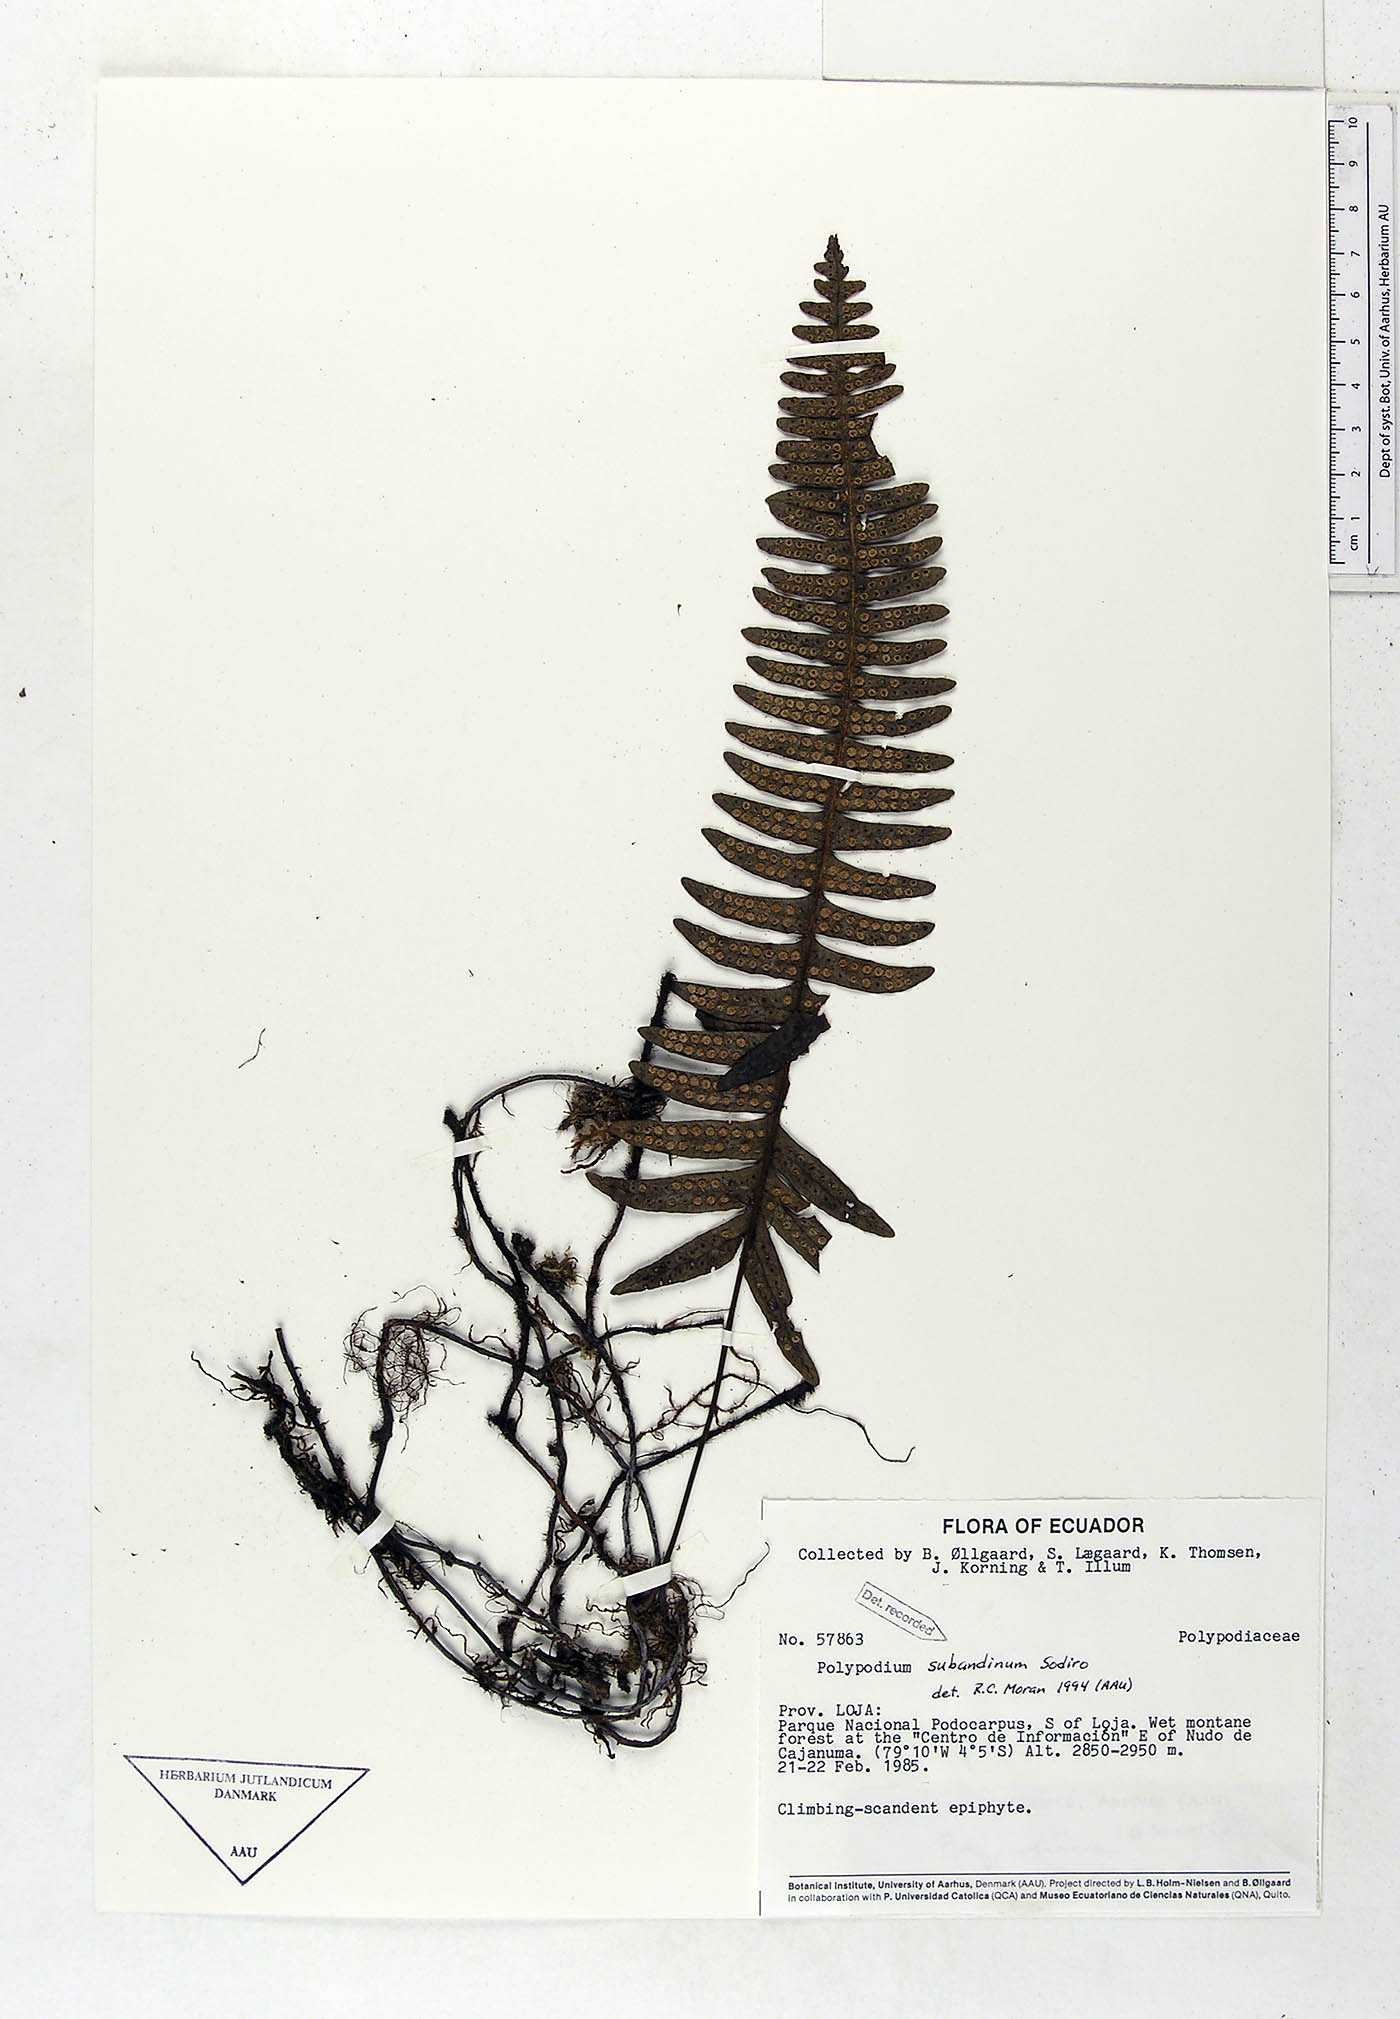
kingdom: Plantae
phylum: Tracheophyta
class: Polypodiopsida
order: Polypodiales
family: Polypodiaceae
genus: Serpocaulon
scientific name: Serpocaulon subandinum
